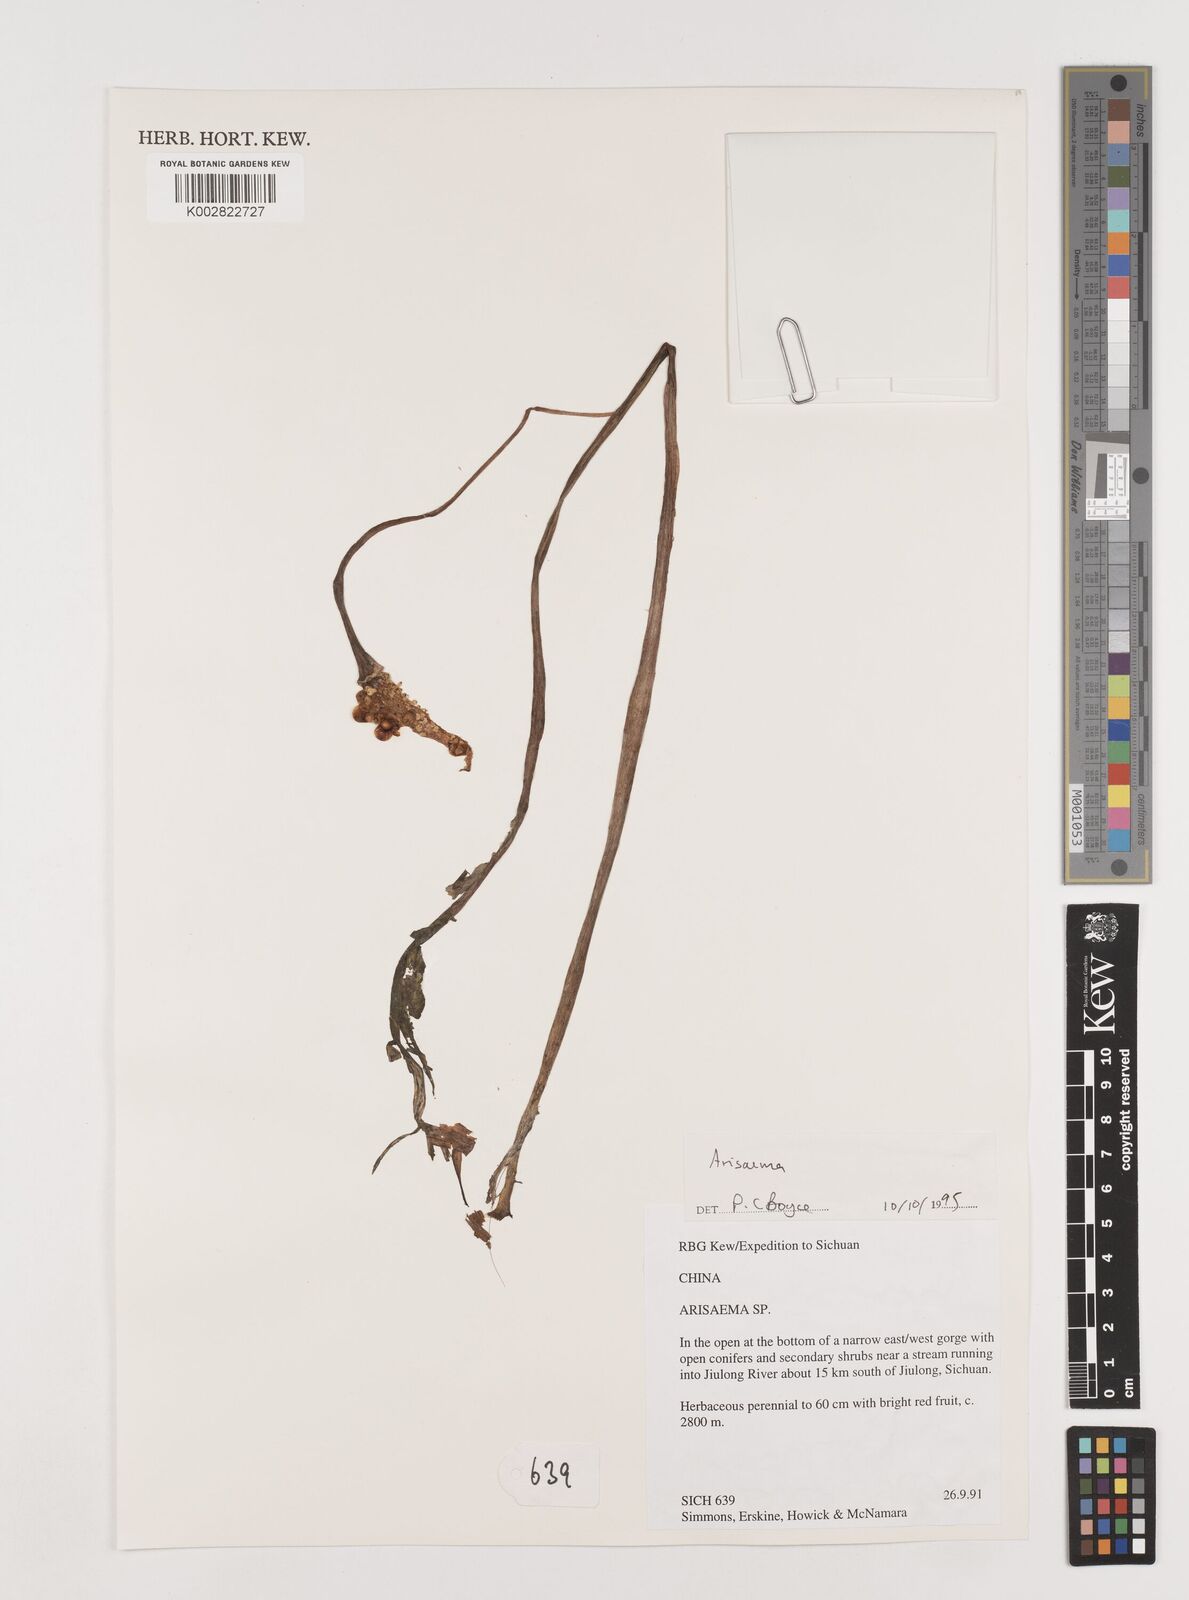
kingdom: Plantae
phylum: Tracheophyta
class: Liliopsida
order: Alismatales
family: Araceae
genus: Arisaema
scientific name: Arisaema
